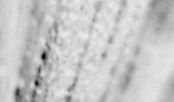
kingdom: Animalia
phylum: Chordata
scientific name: Chordata
